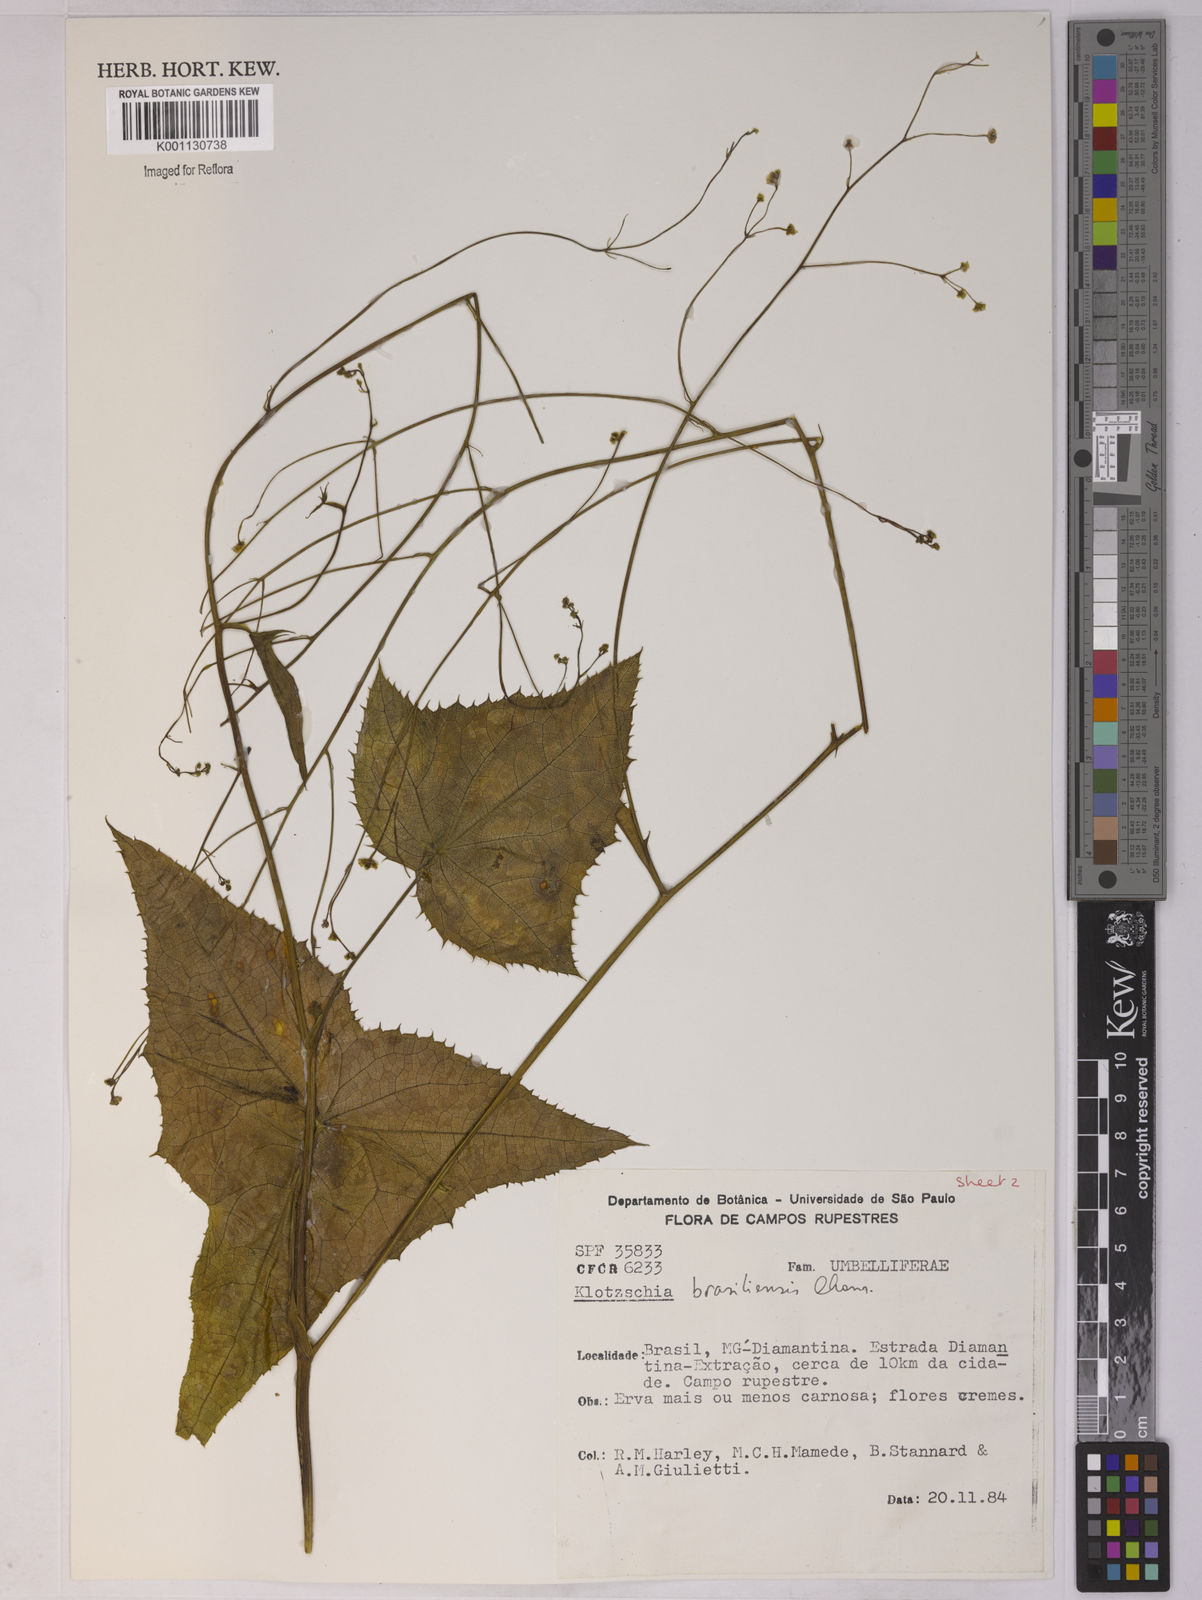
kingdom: Plantae
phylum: Tracheophyta
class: Magnoliopsida
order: Apiales
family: Apiaceae
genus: Klotzschia
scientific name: Klotzschia brasiliensis
